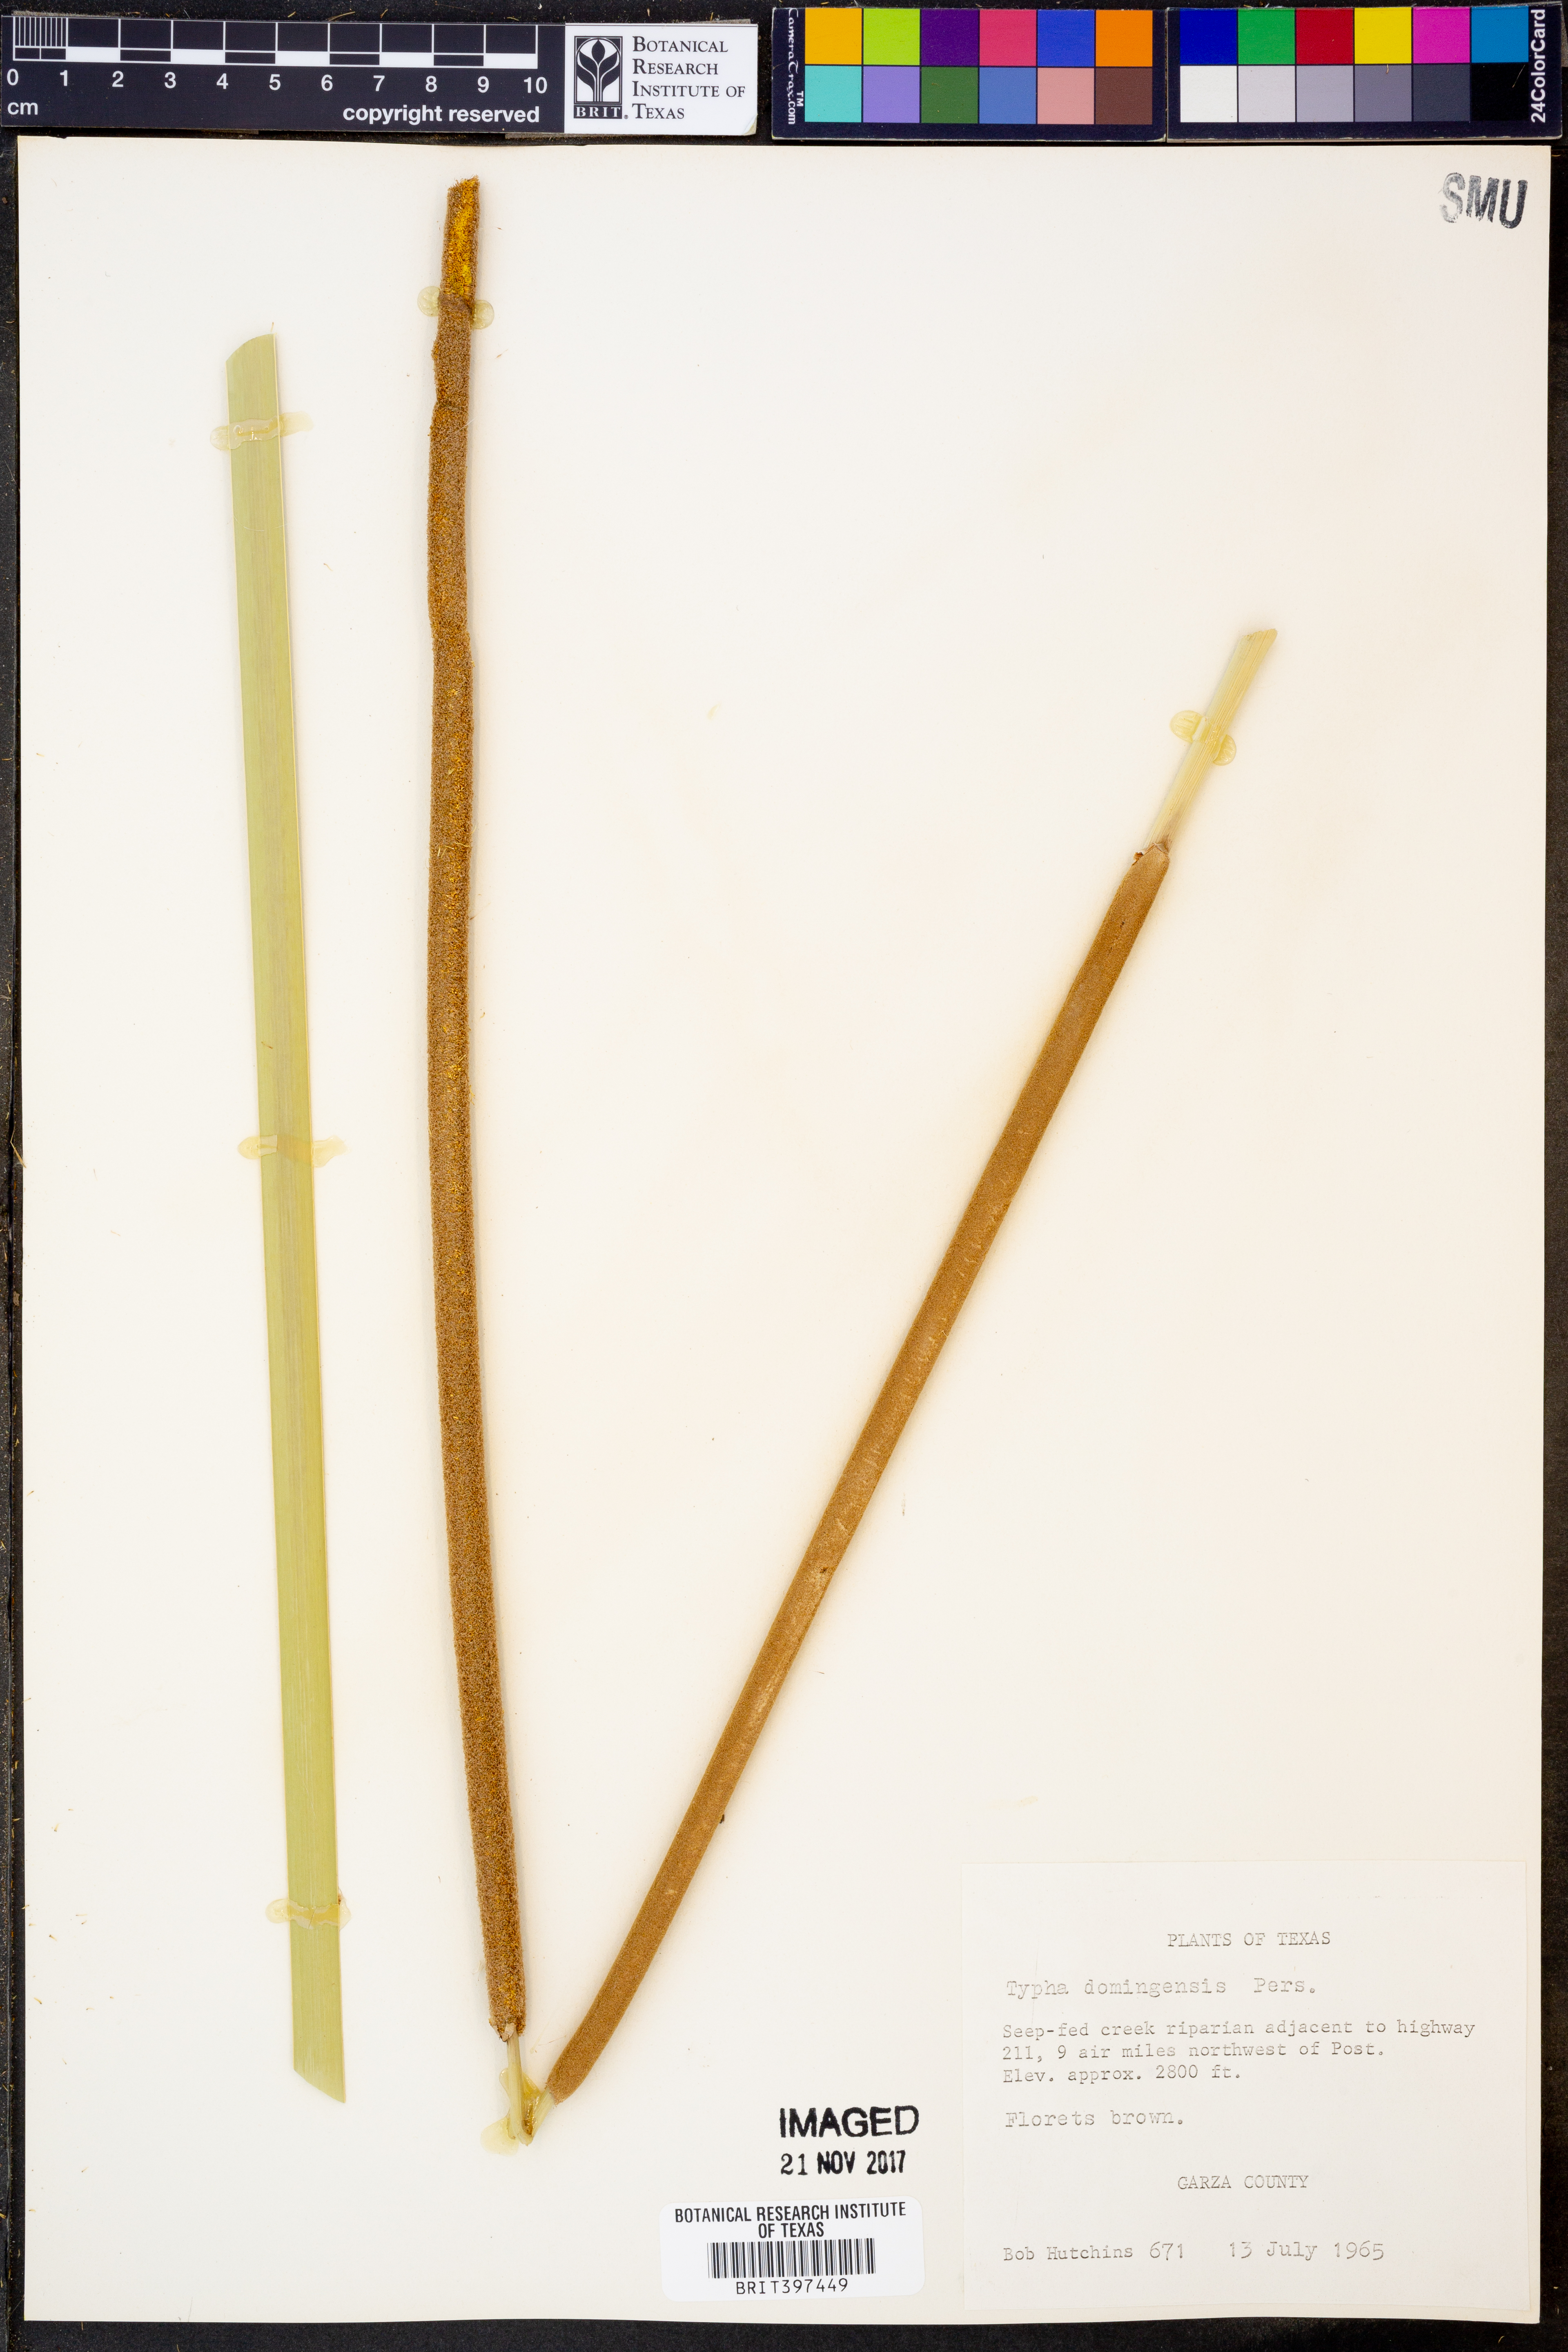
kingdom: Plantae
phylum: Tracheophyta
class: Liliopsida
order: Poales
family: Typhaceae
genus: Typha
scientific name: Typha domingensis
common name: Southern cattail
